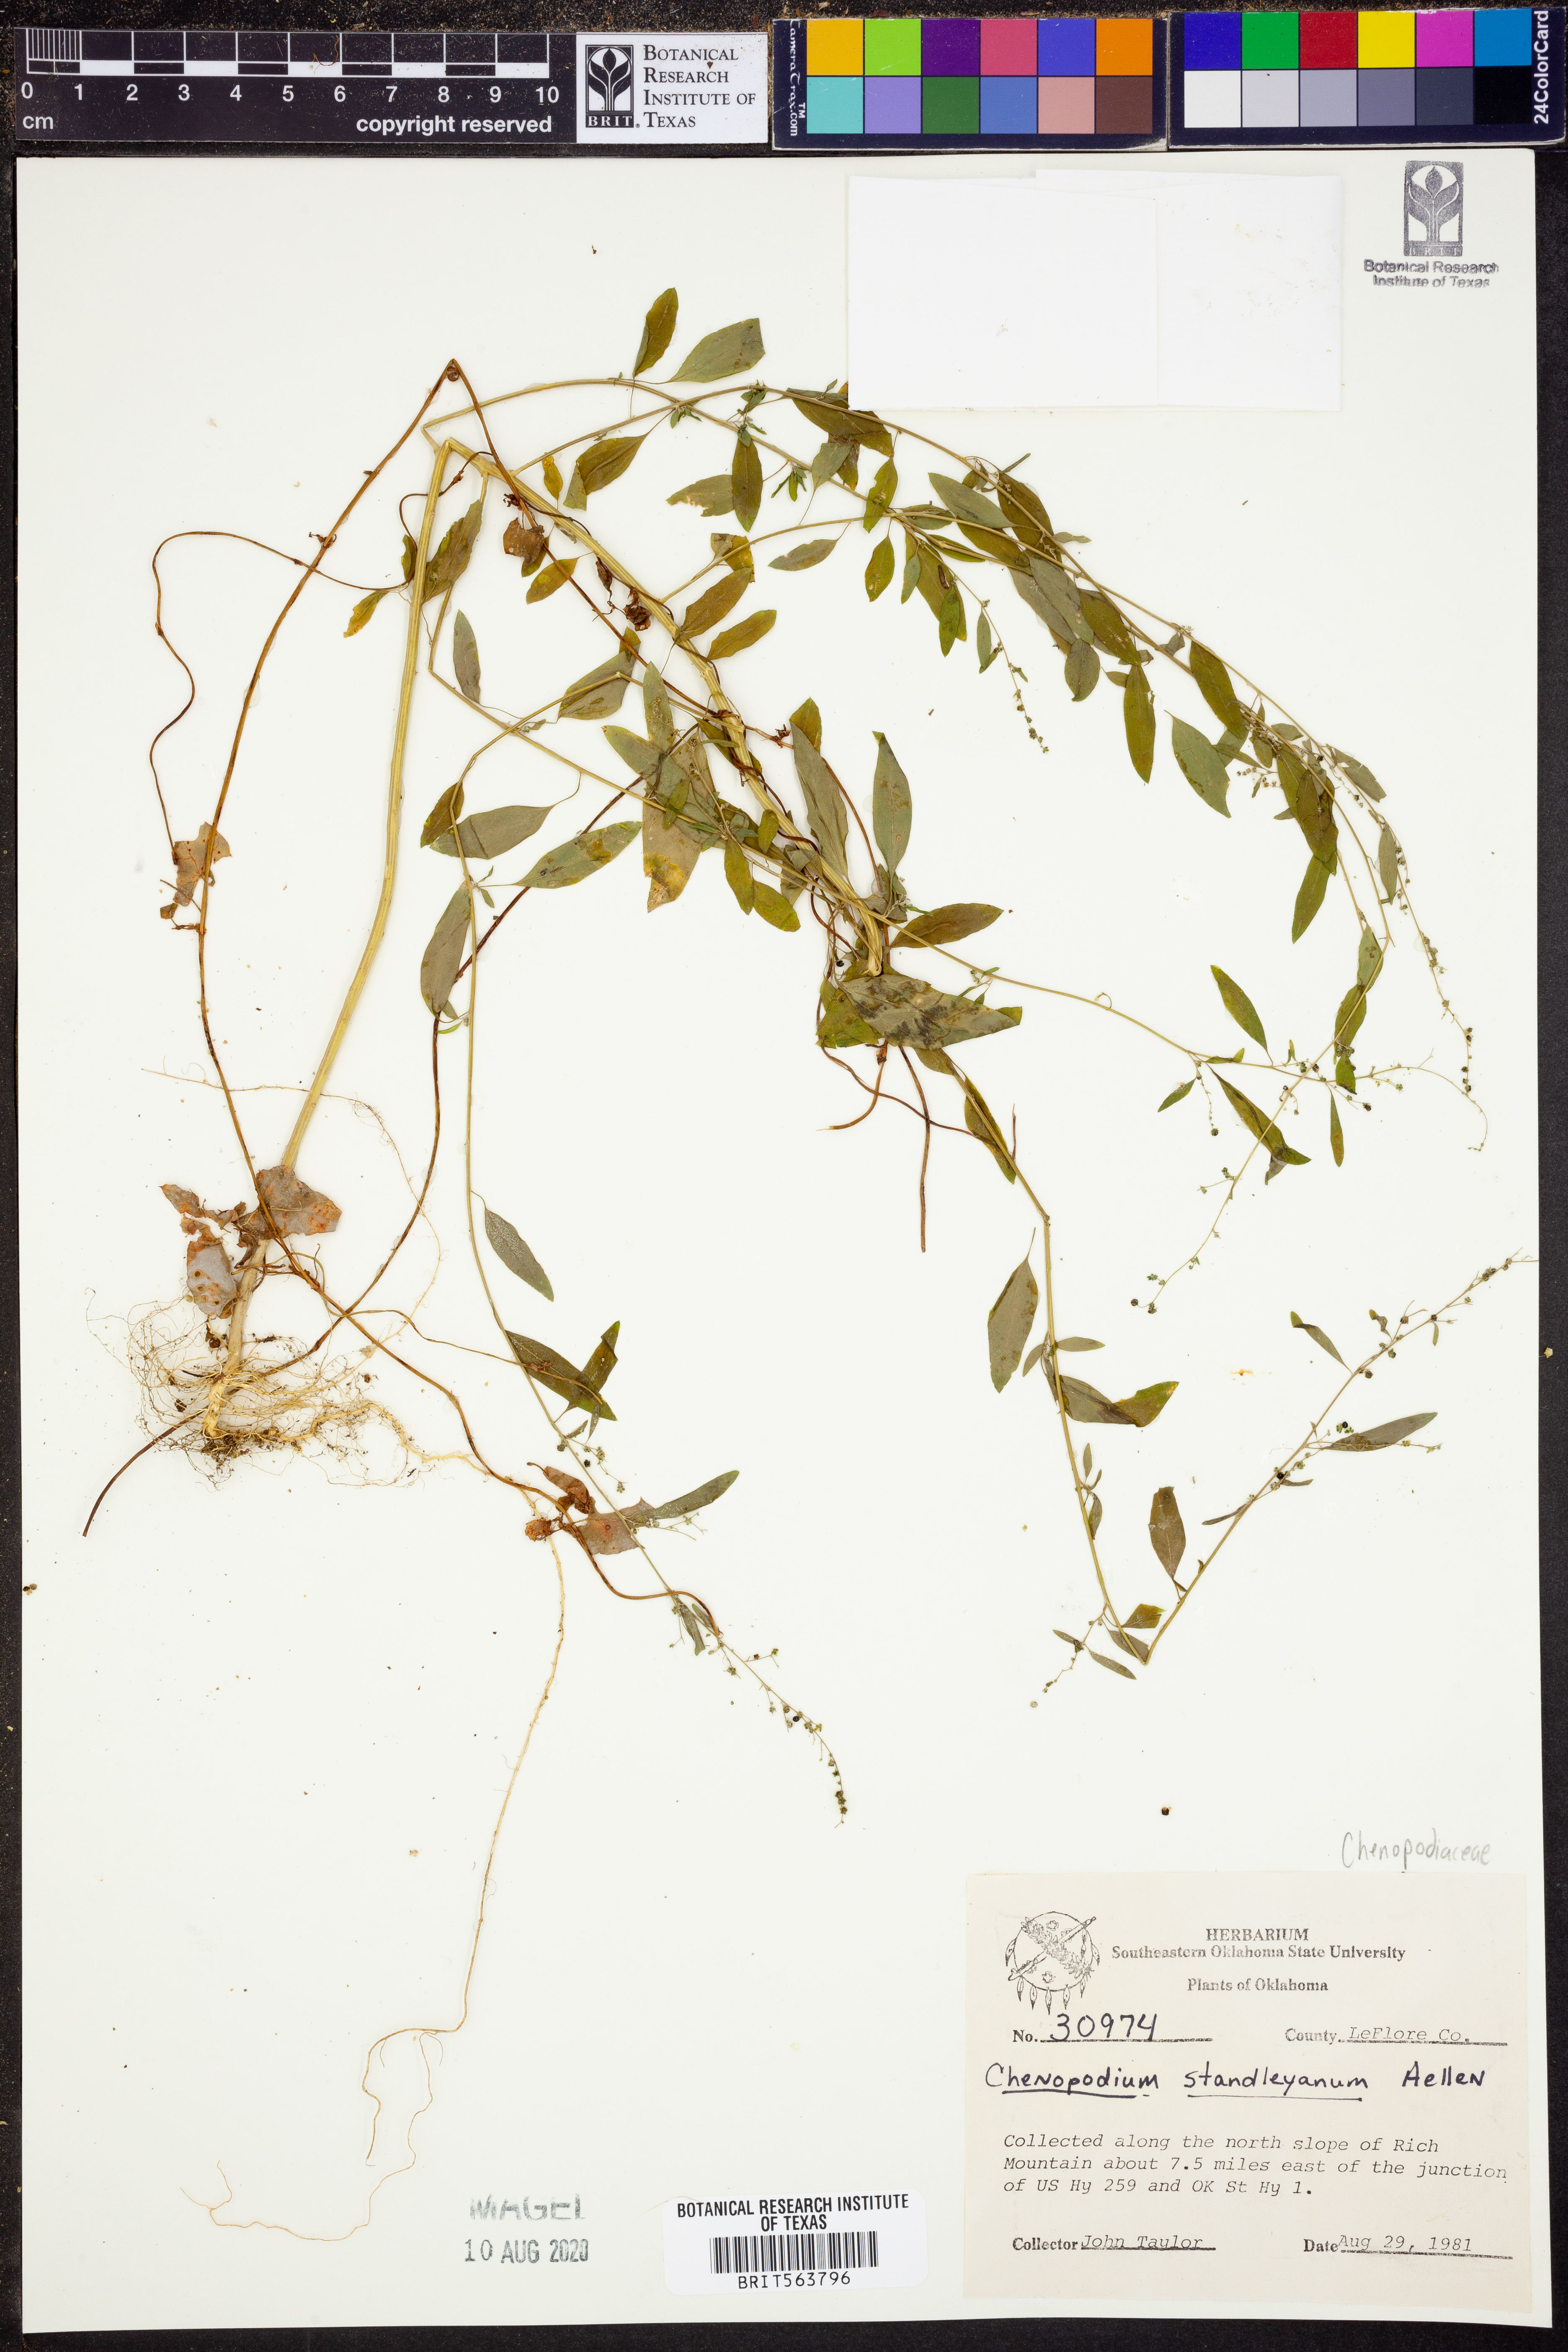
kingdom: Plantae
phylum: Tracheophyta
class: Magnoliopsida
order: Caryophyllales
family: Amaranthaceae
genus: Chenopodiastrum
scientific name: Chenopodiastrum standleyanum
